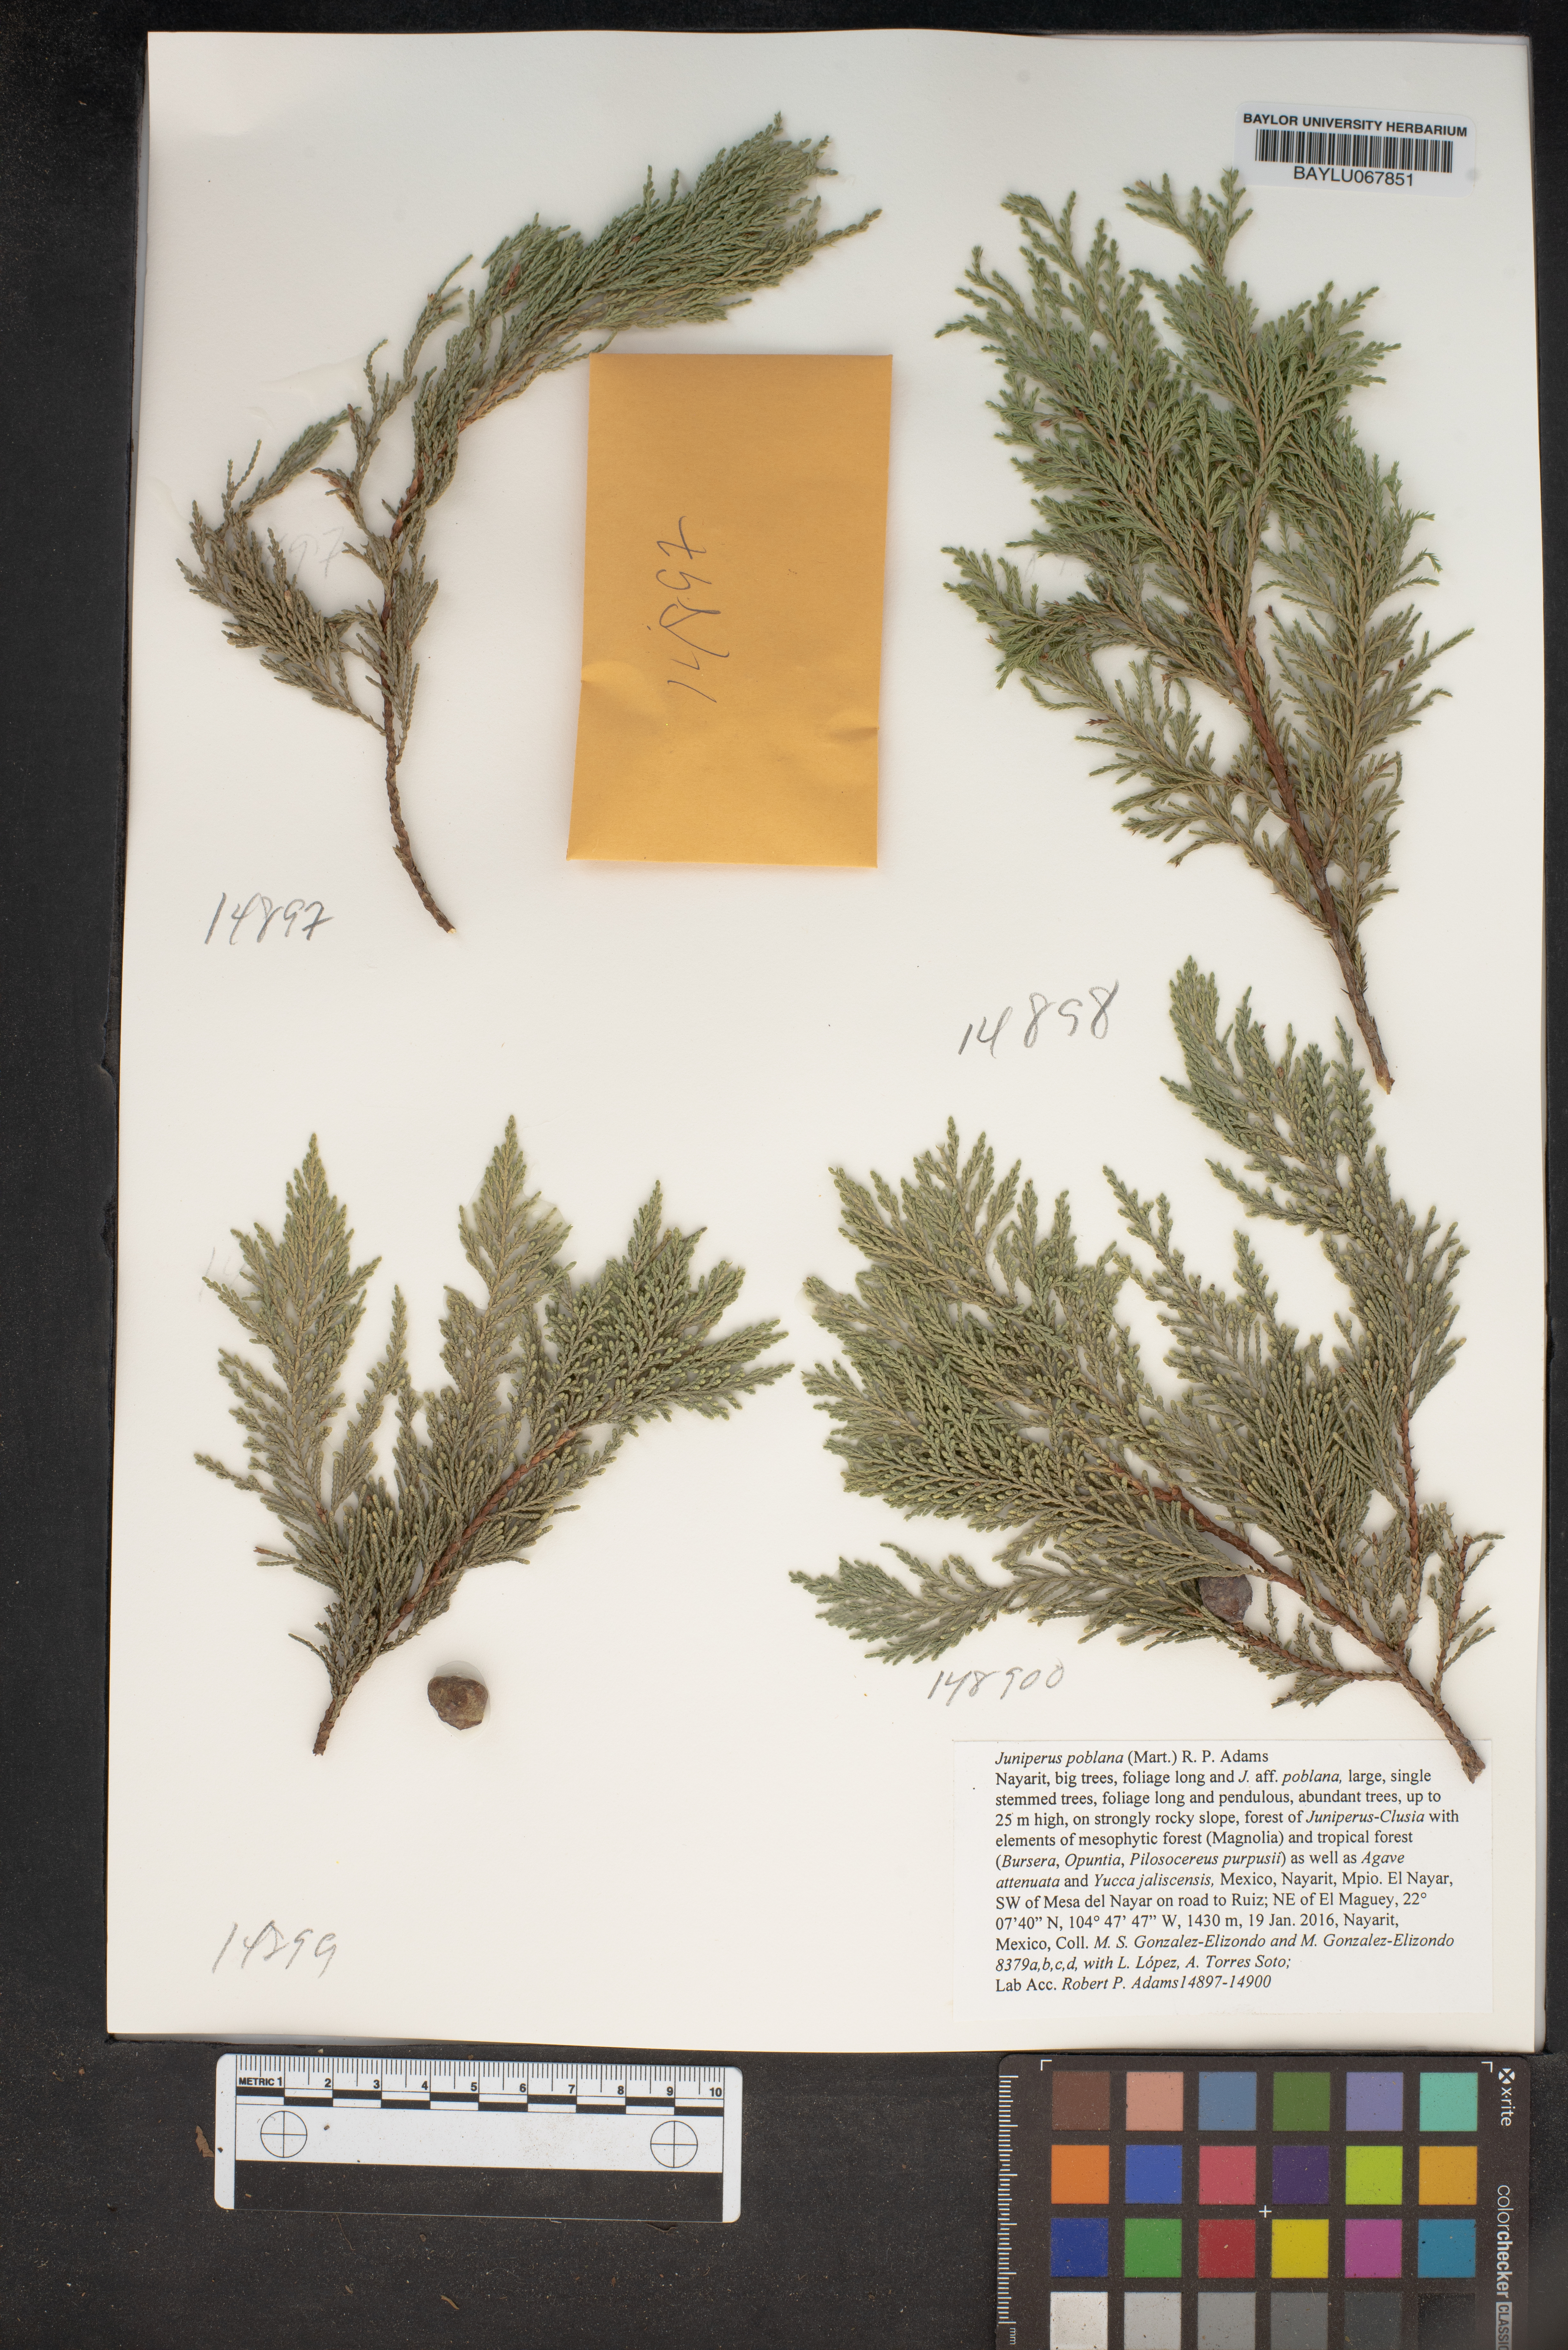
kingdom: Plantae
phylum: Tracheophyta
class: Pinopsida
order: Pinales
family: Cupressaceae
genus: Juniperus
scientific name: Juniperus flaccida
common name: Drooping juniper
